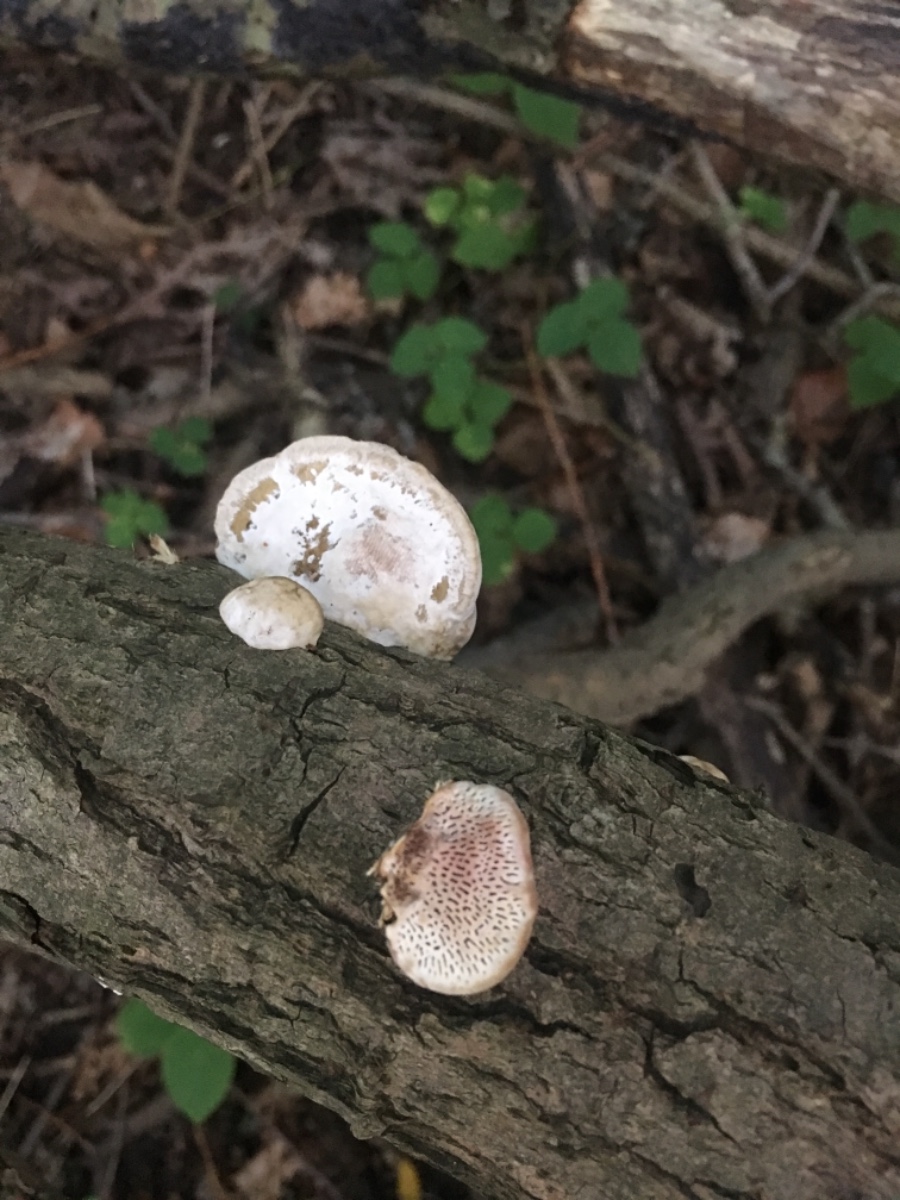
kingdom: Fungi
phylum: Basidiomycota
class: Agaricomycetes
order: Polyporales
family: Polyporaceae
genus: Daedaleopsis
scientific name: Daedaleopsis confragosa
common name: rødmende læderporesvamp
